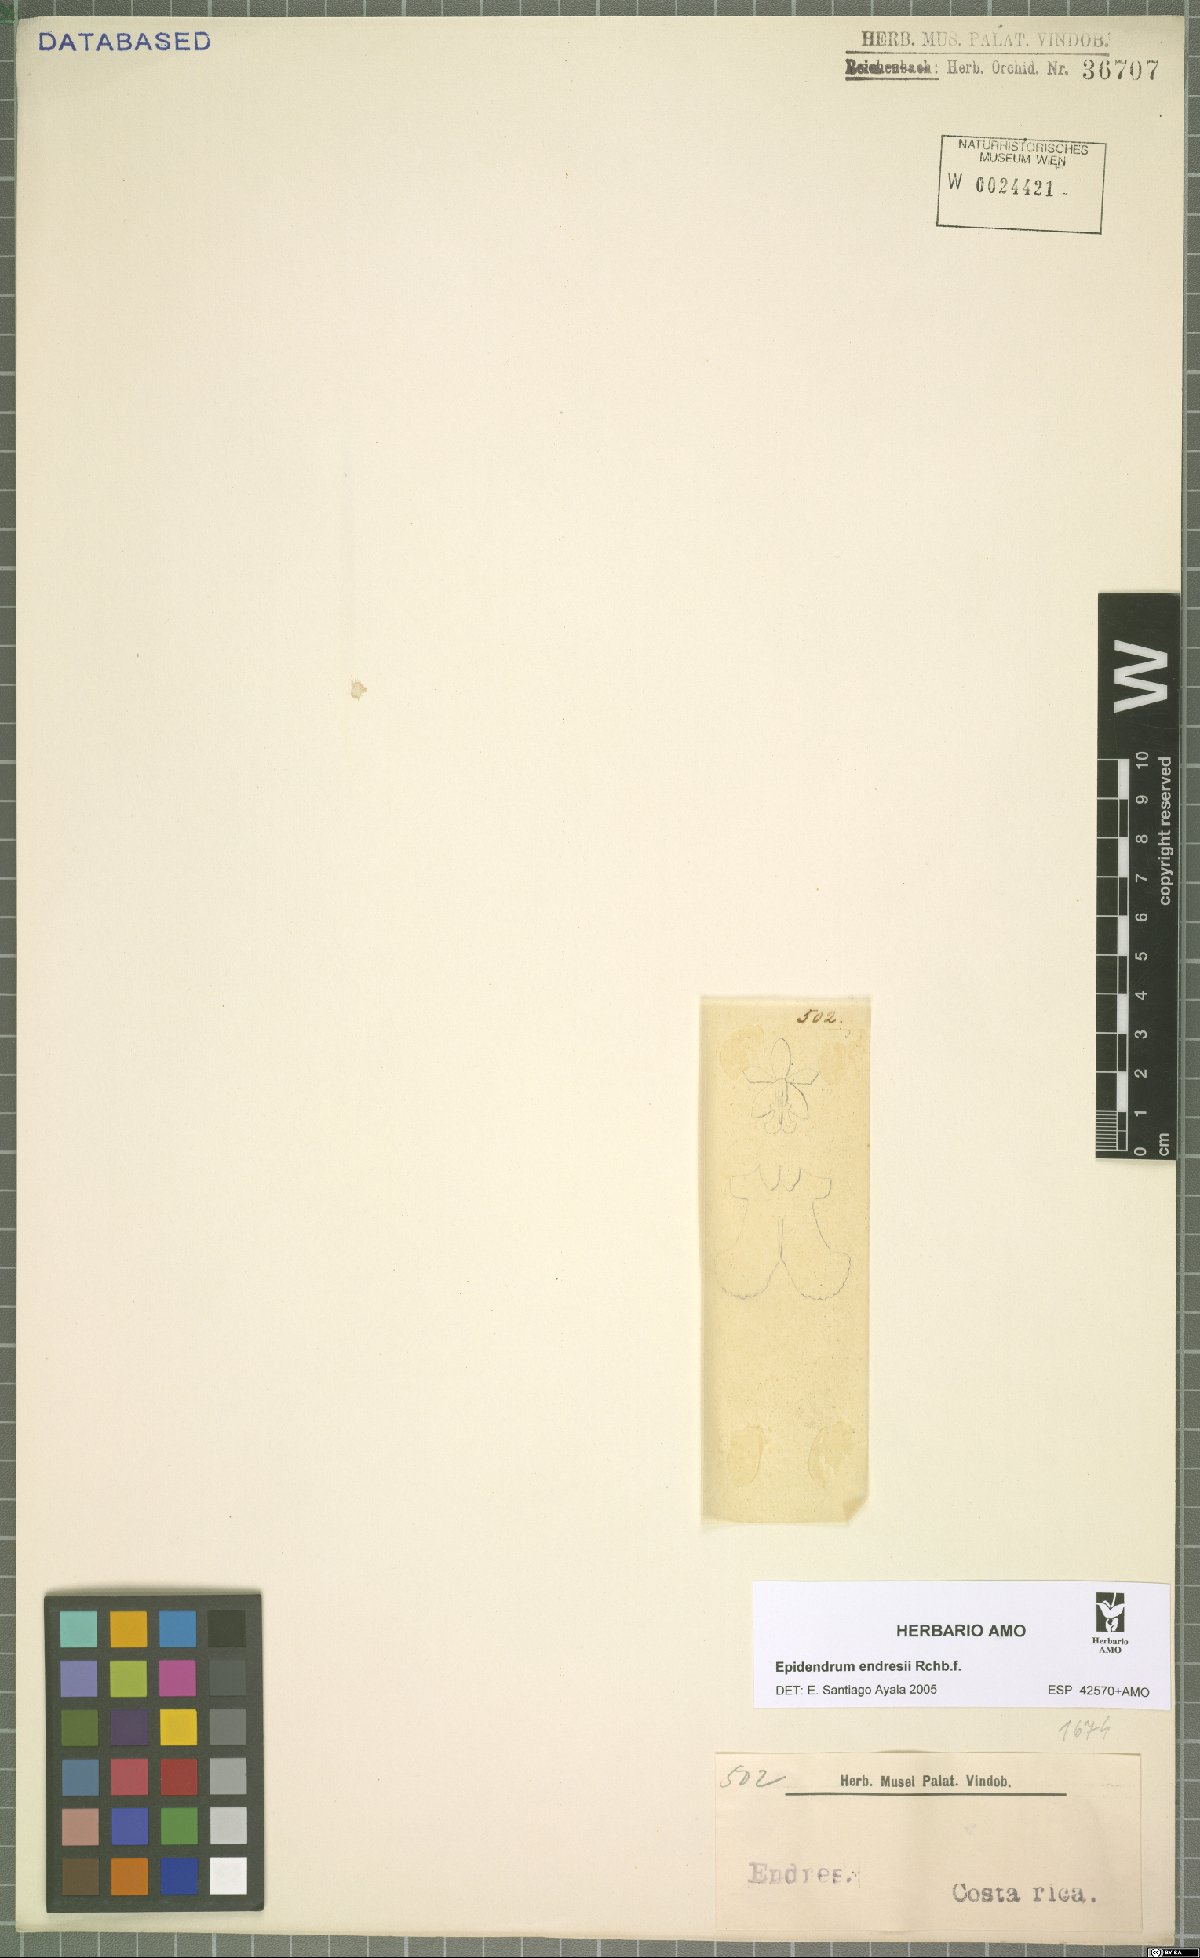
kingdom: Plantae
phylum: Tracheophyta
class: Liliopsida
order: Asparagales
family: Orchidaceae
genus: Epidendrum
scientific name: Epidendrum endresii
